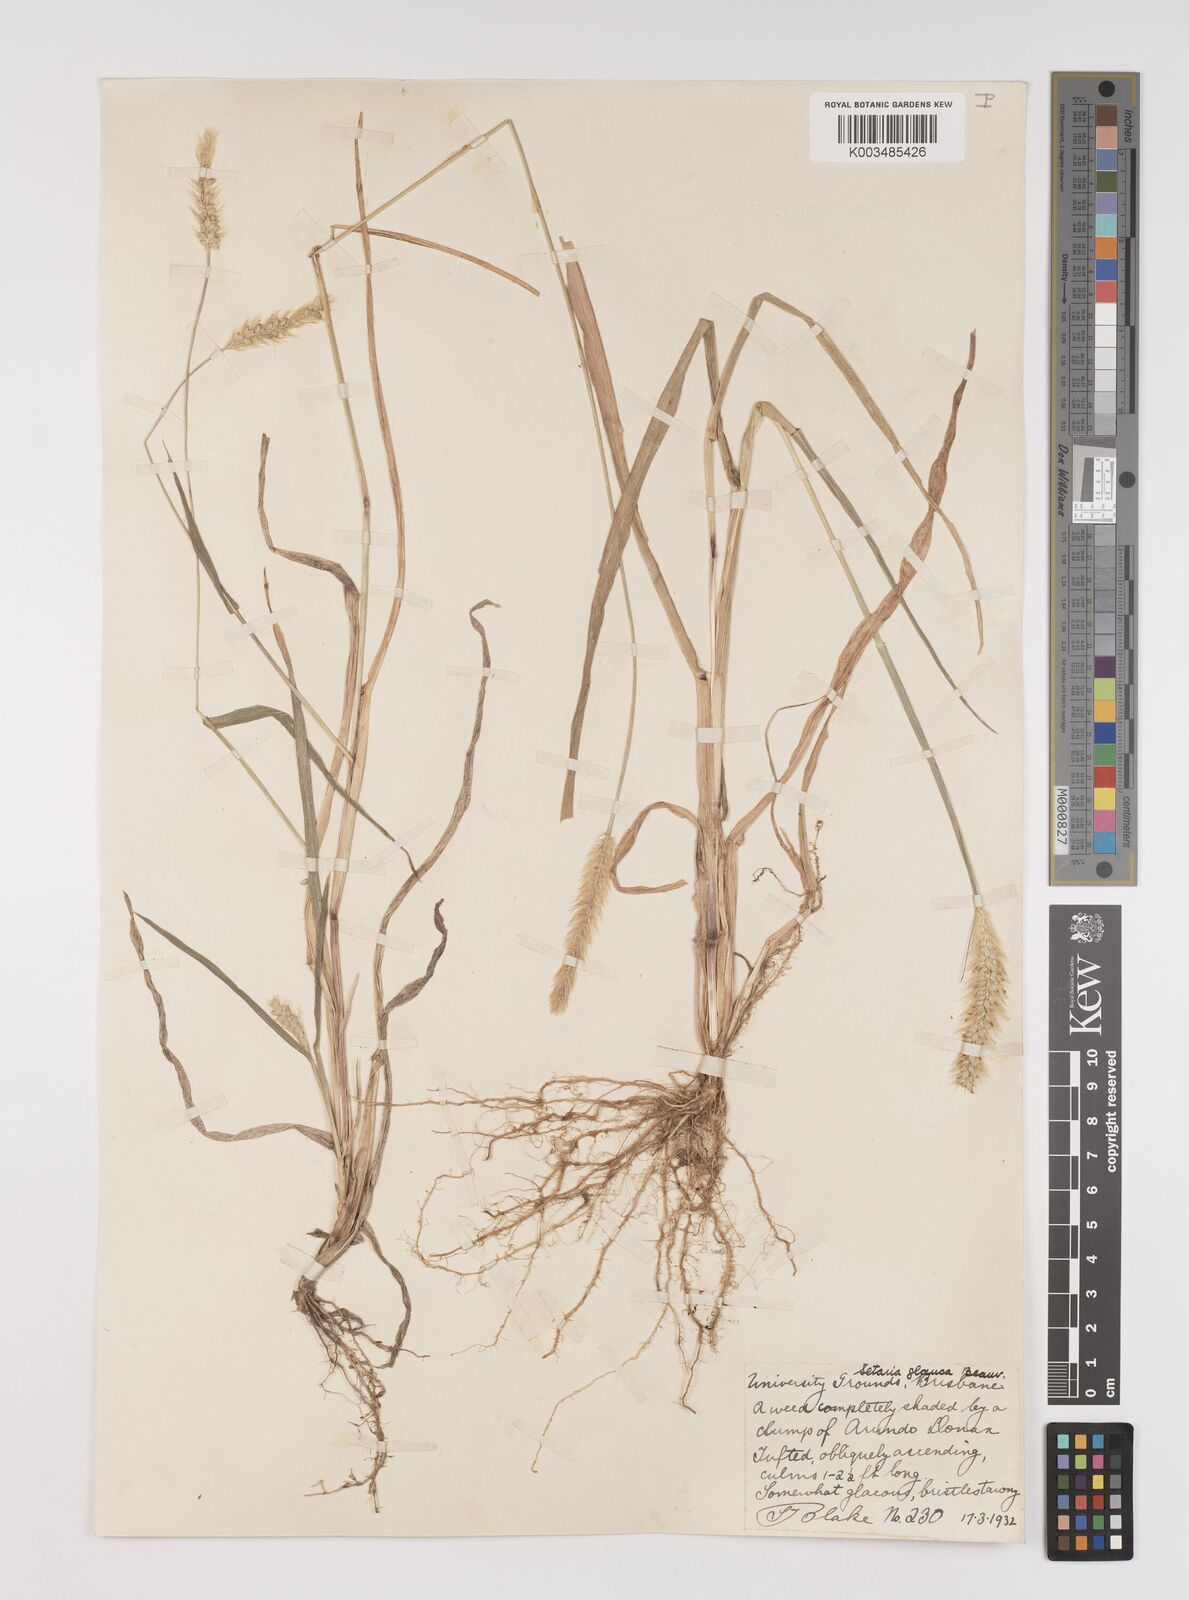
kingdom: Plantae
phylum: Tracheophyta
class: Liliopsida
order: Poales
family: Poaceae
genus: Setaria
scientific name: Setaria pumila
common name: Yellow bristle-grass
